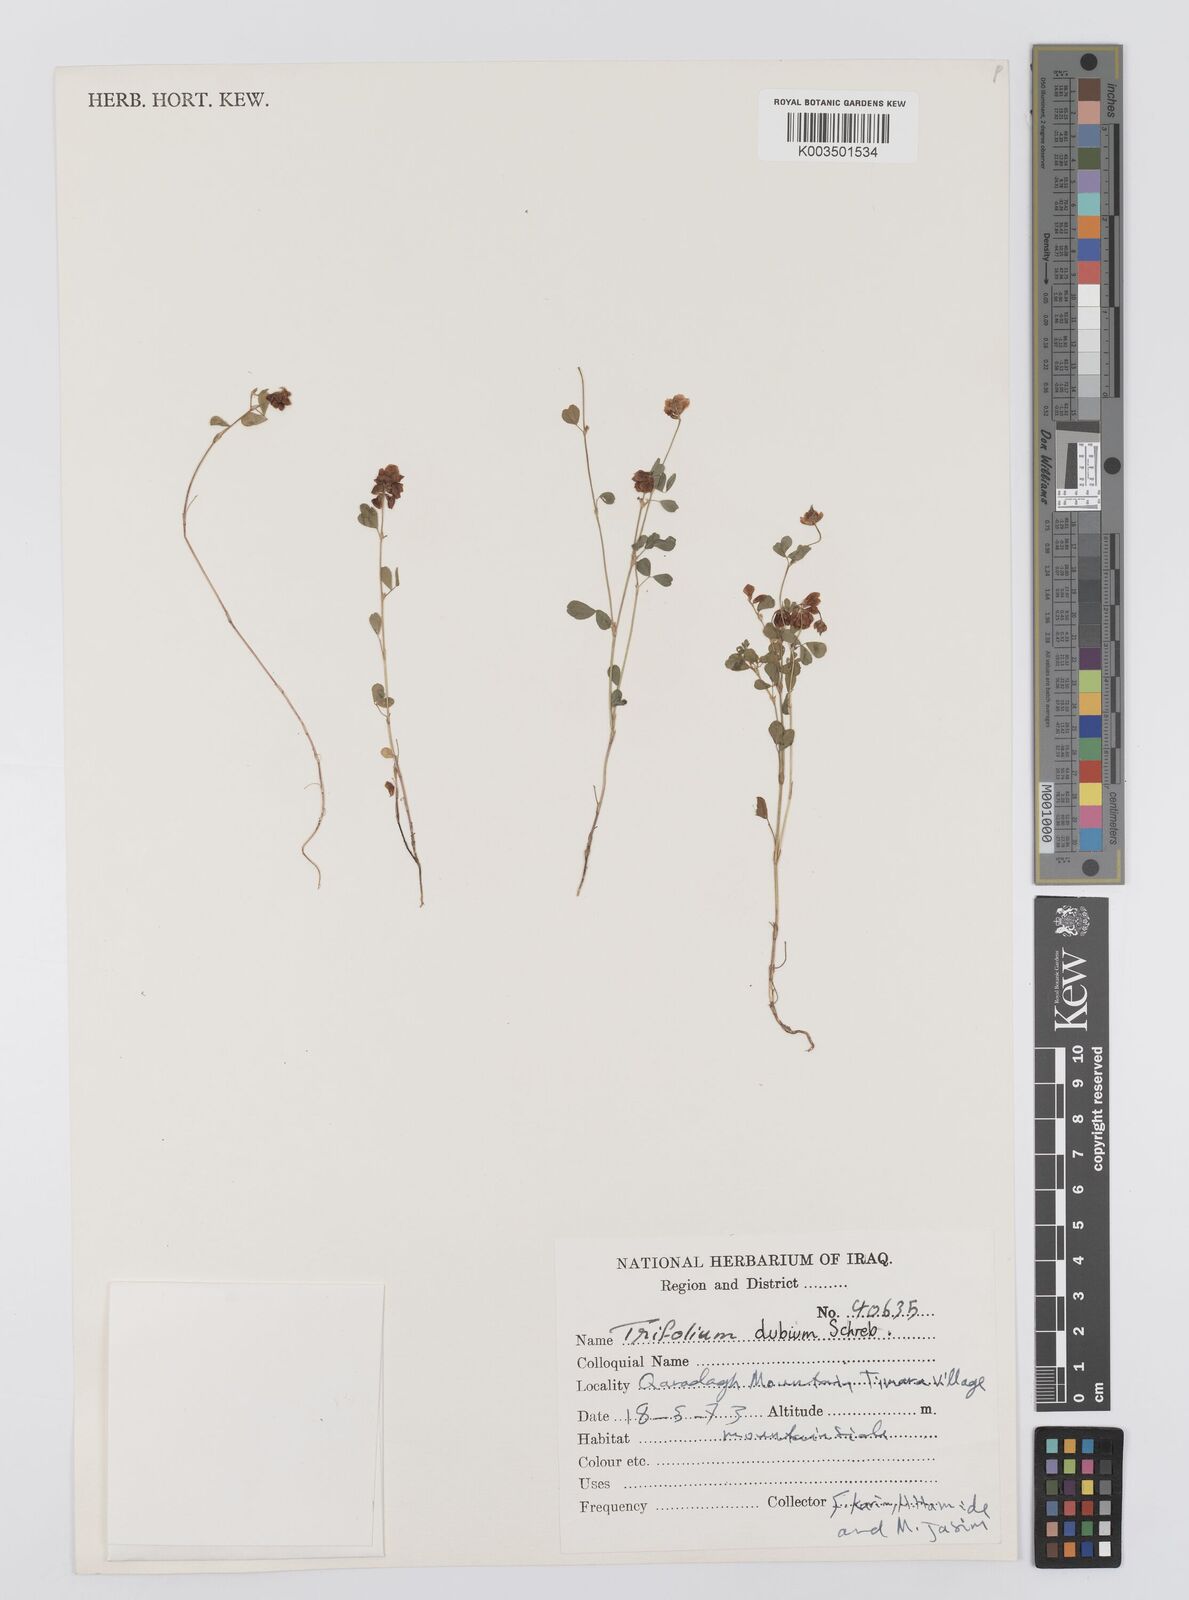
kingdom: Plantae
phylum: Tracheophyta
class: Magnoliopsida
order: Fabales
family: Fabaceae
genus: Trifolium
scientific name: Trifolium dubium
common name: Suckling clover
